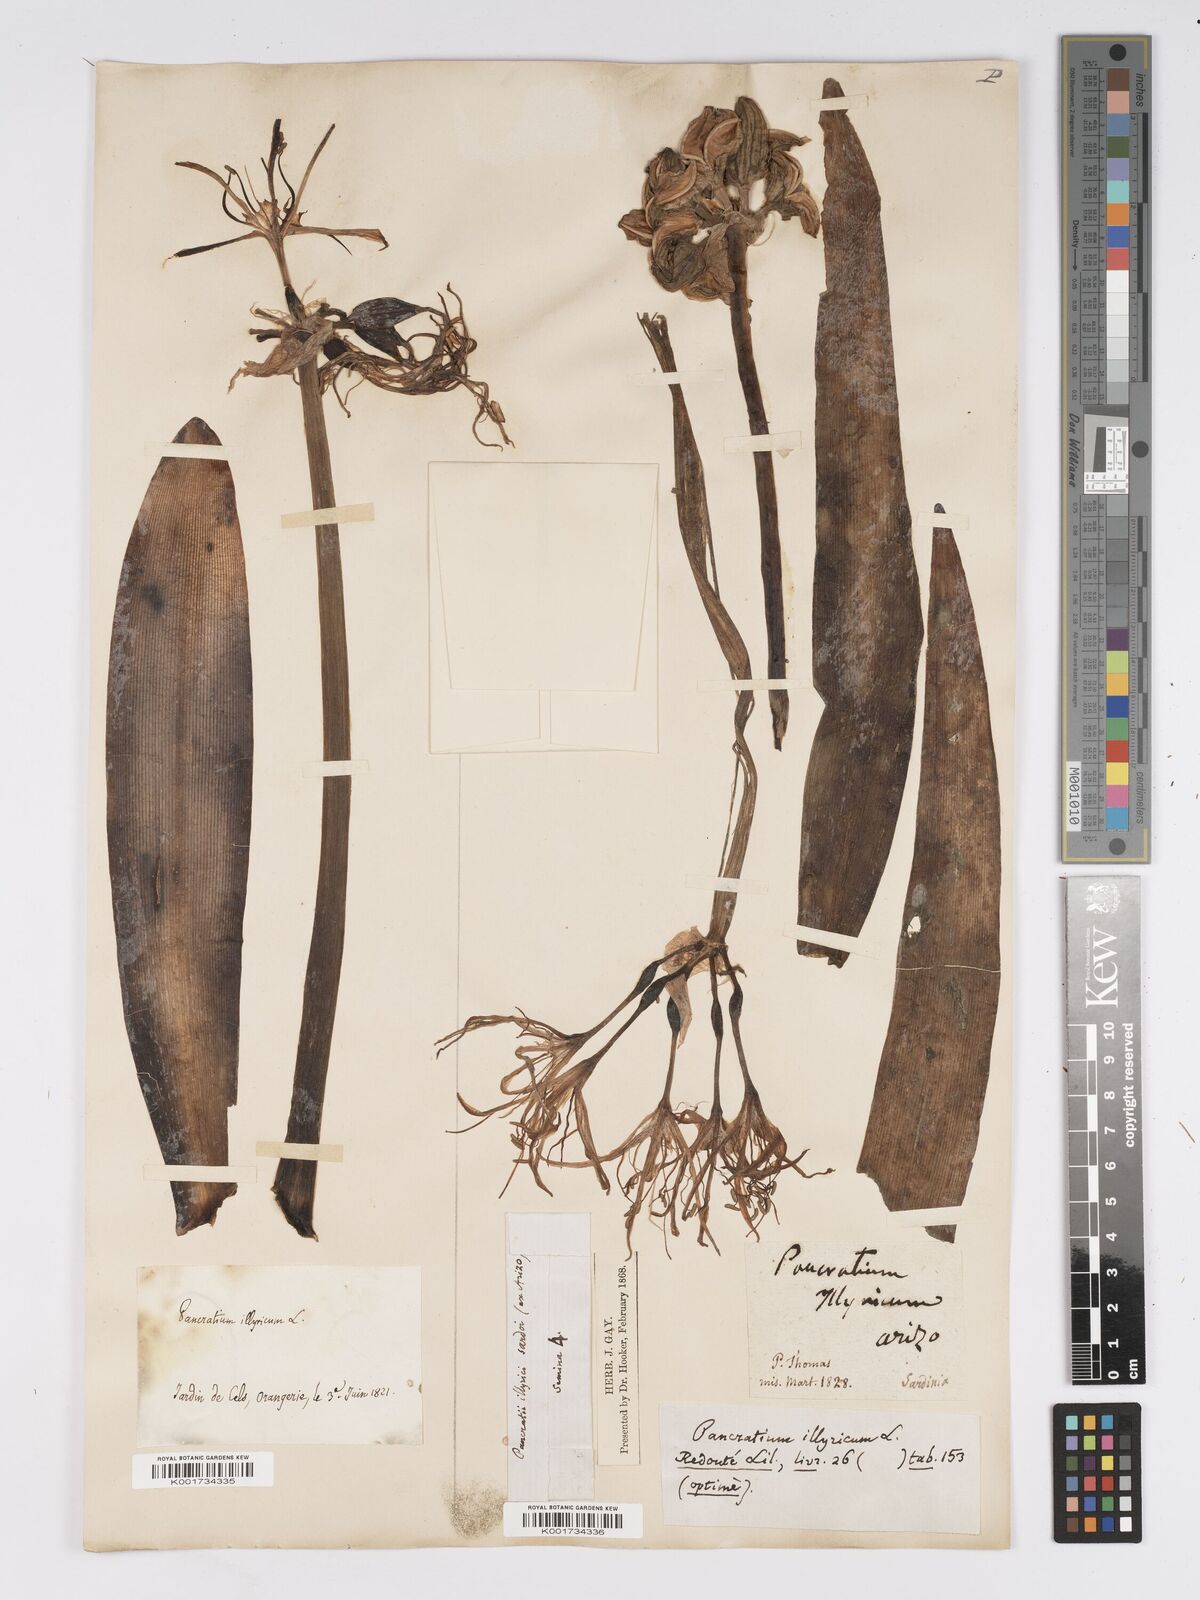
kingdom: Plantae
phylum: Tracheophyta
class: Liliopsida
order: Asparagales
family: Amaryllidaceae
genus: Pancratium
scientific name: Pancratium illyricum
